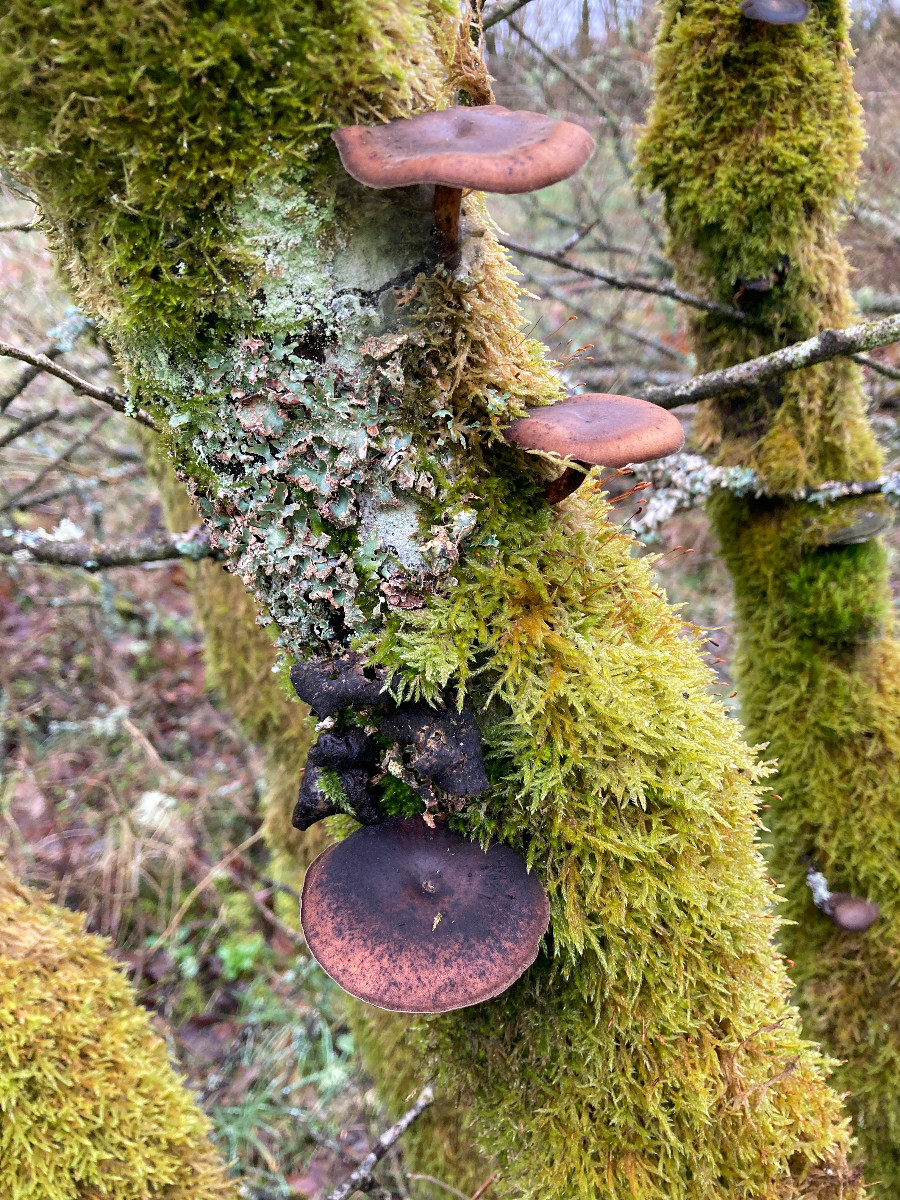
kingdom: Fungi
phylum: Basidiomycota
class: Agaricomycetes
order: Polyporales
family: Polyporaceae
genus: Lentinus
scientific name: Lentinus brumalis
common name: vinter-stilkporesvamp
